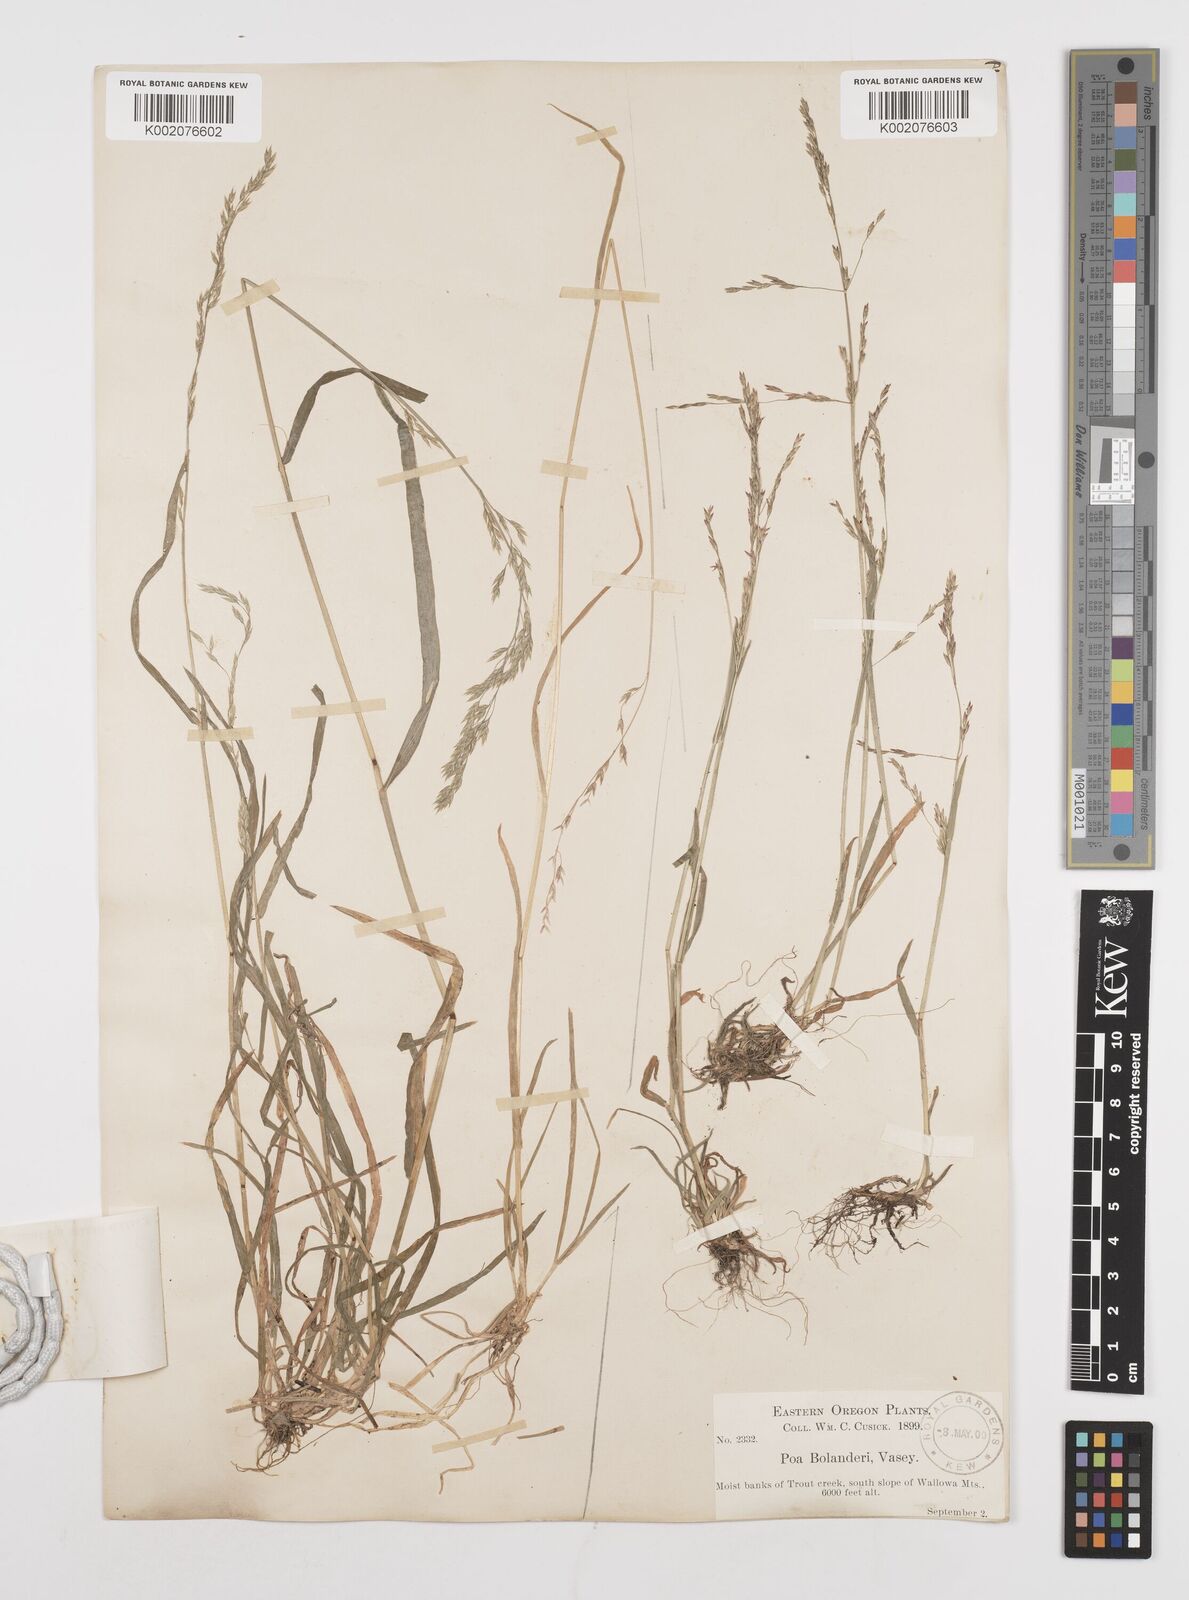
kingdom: Plantae
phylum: Tracheophyta
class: Liliopsida
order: Poales
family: Poaceae
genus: Poa
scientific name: Poa bolanderi
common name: Bolander's bluegrass
